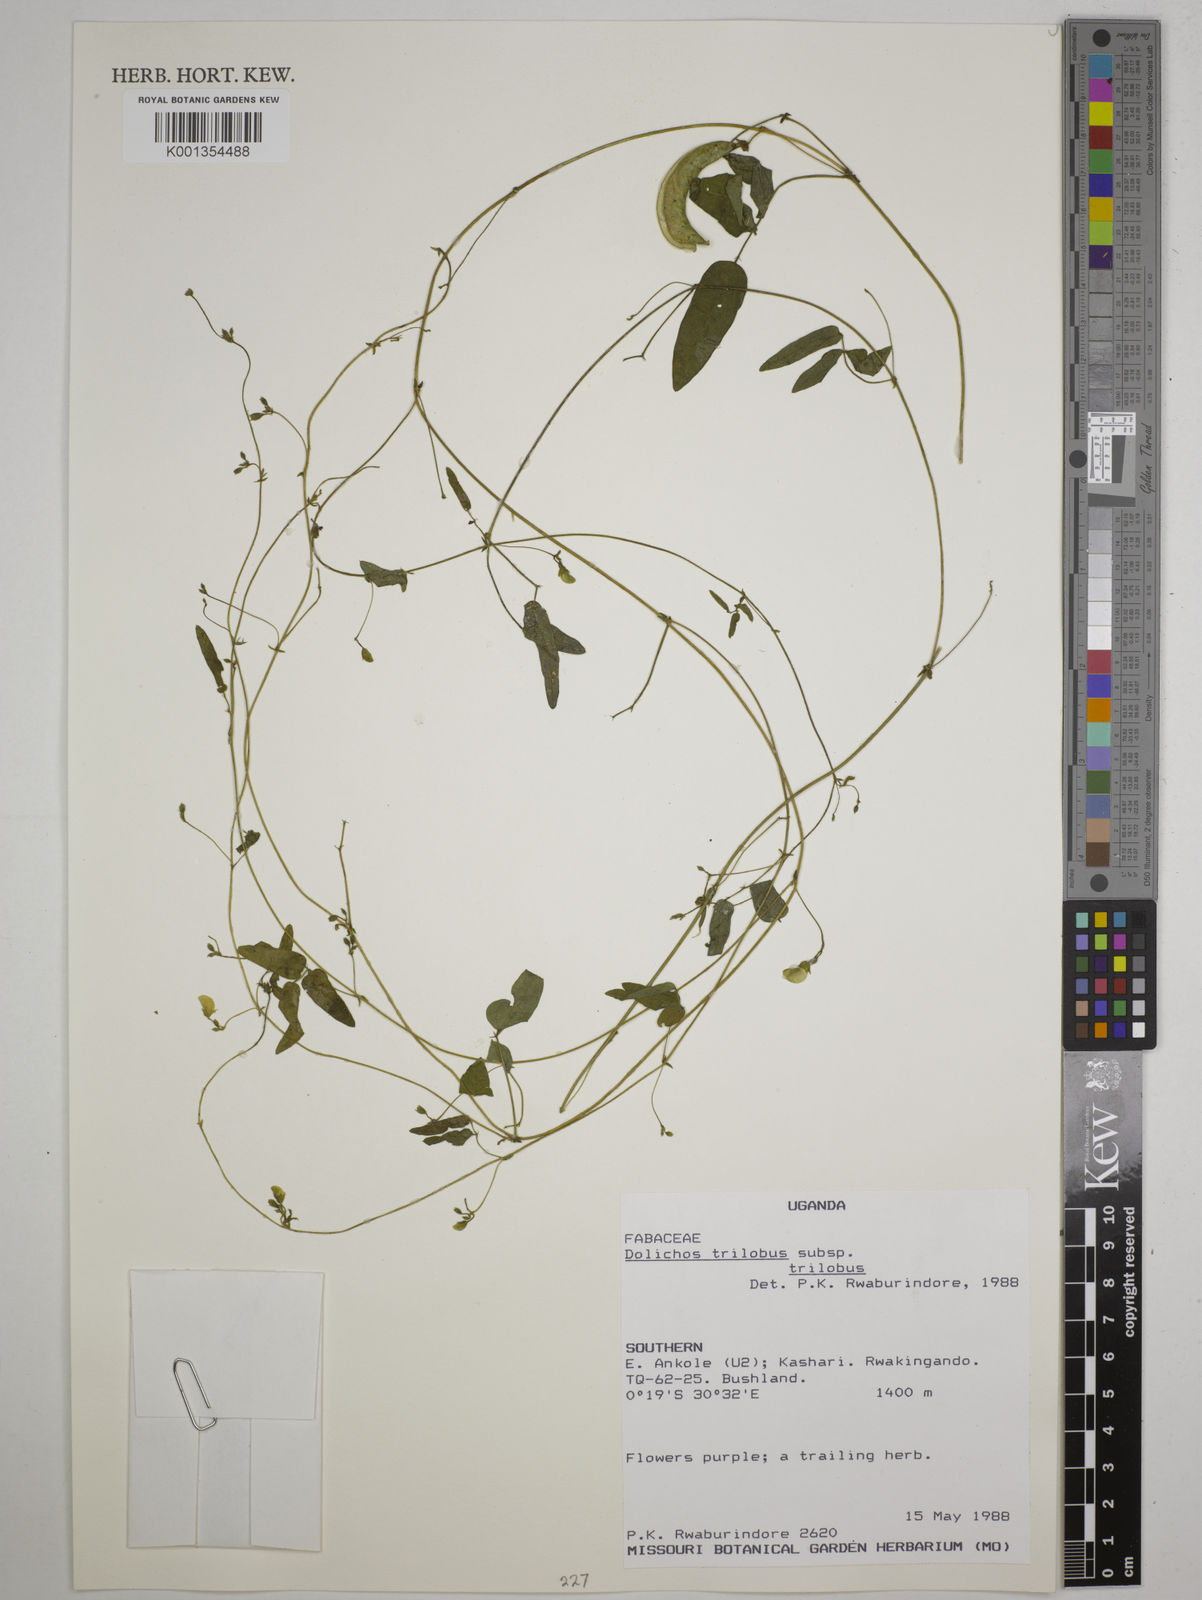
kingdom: Plantae
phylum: Tracheophyta
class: Magnoliopsida
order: Fabales
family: Fabaceae
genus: Dolichos
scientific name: Dolichos
